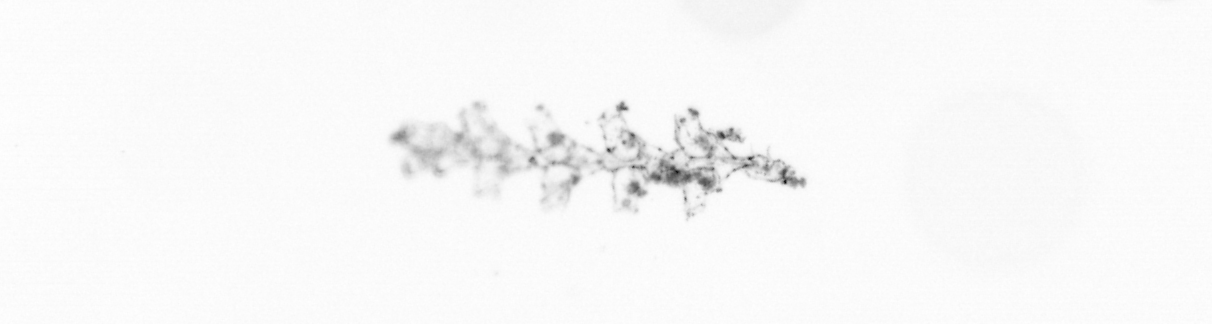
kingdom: Animalia
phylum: Cnidaria
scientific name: Cnidaria
